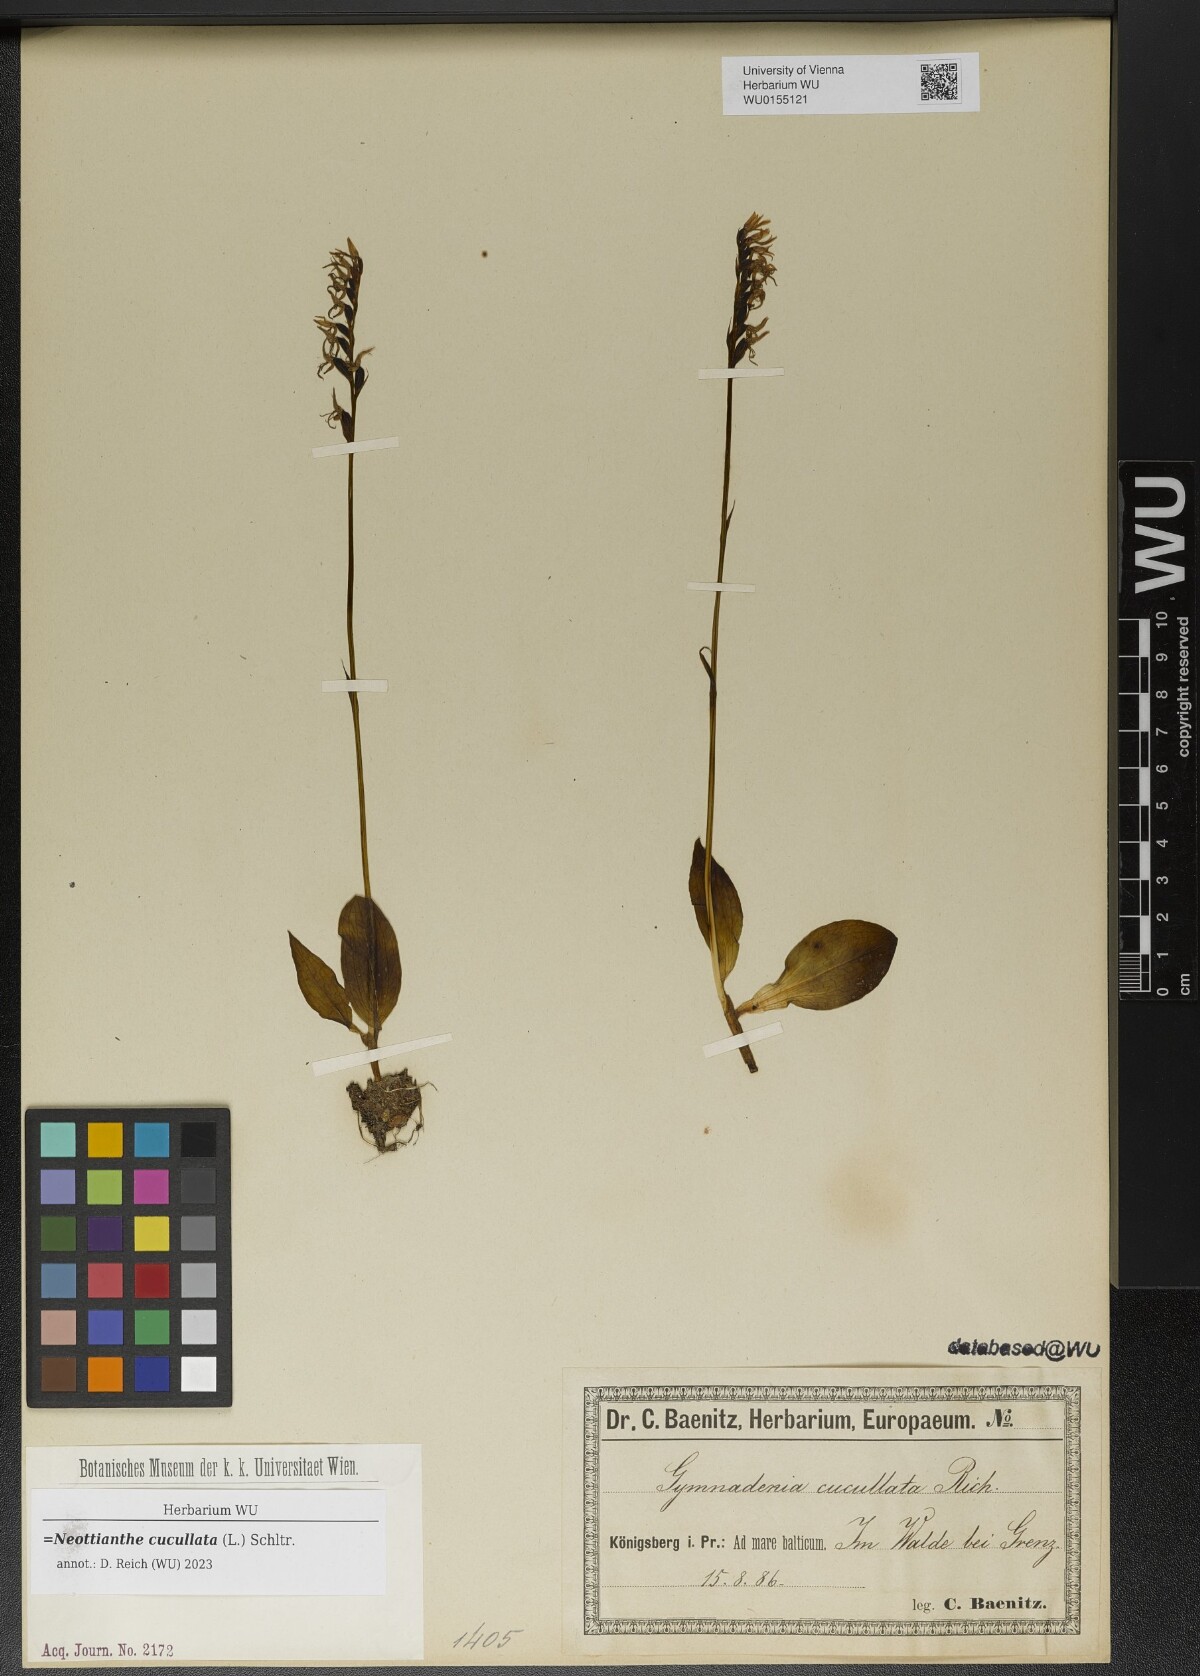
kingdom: Plantae
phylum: Tracheophyta
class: Liliopsida
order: Asparagales
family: Orchidaceae
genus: Hemipilia
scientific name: Hemipilia cucullata
